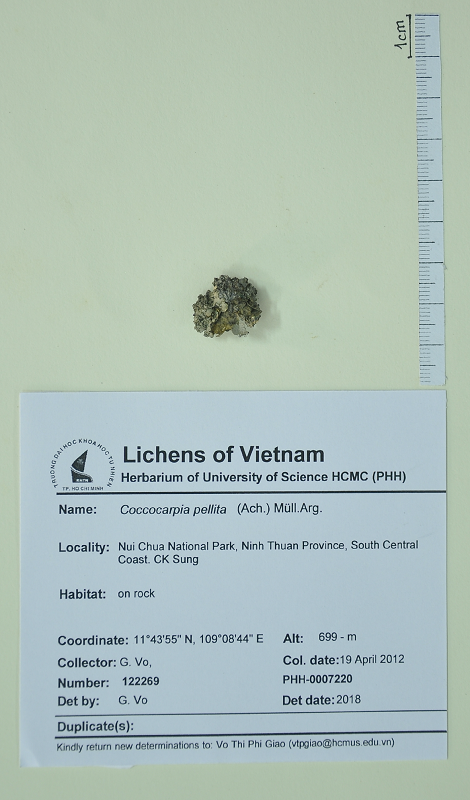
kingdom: Fungi
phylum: Ascomycota
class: Lecanoromycetes
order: Peltigerales
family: Coccocarpiaceae
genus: Coccocarpia
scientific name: Coccocarpia pellita
